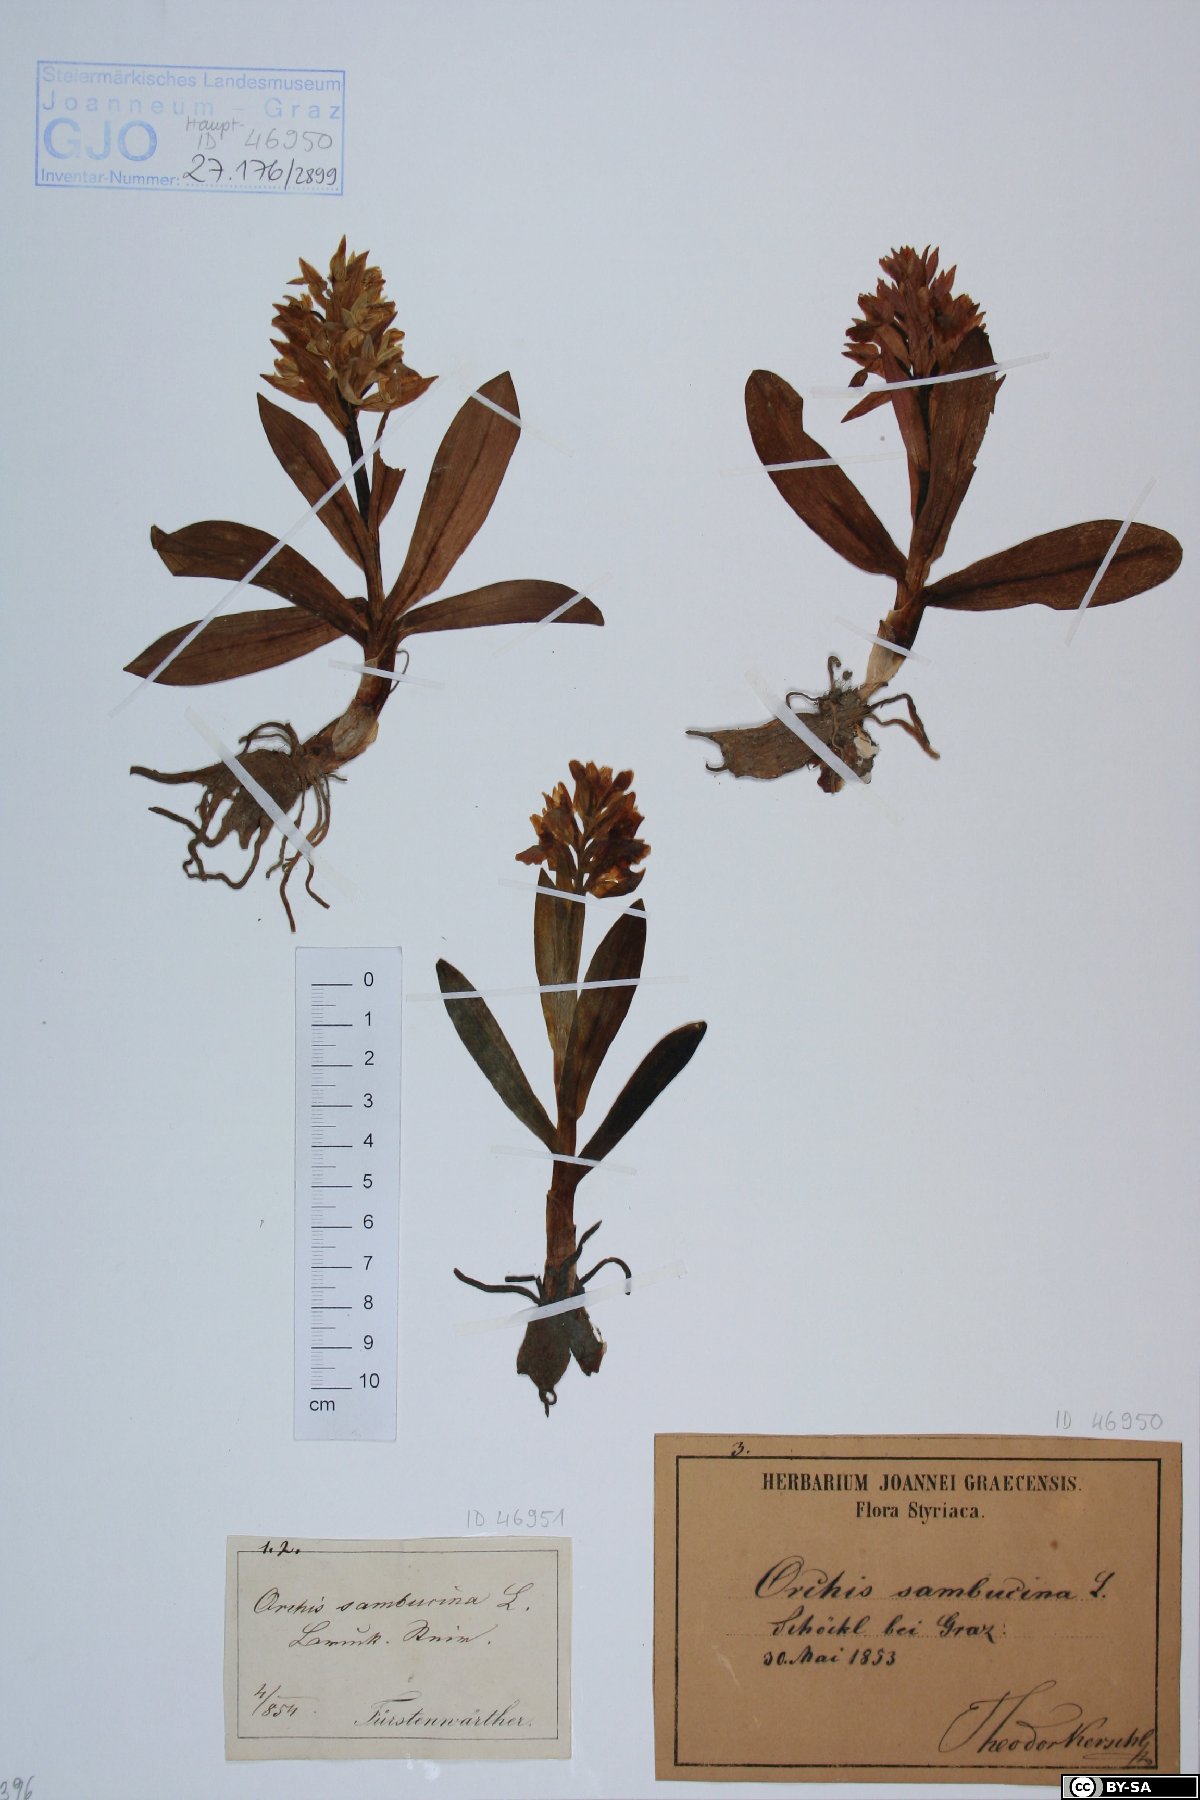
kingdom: Plantae
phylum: Tracheophyta
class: Liliopsida
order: Asparagales
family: Orchidaceae
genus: Dactylorhiza
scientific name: Dactylorhiza sambucina
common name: Elder-flowered orchid
